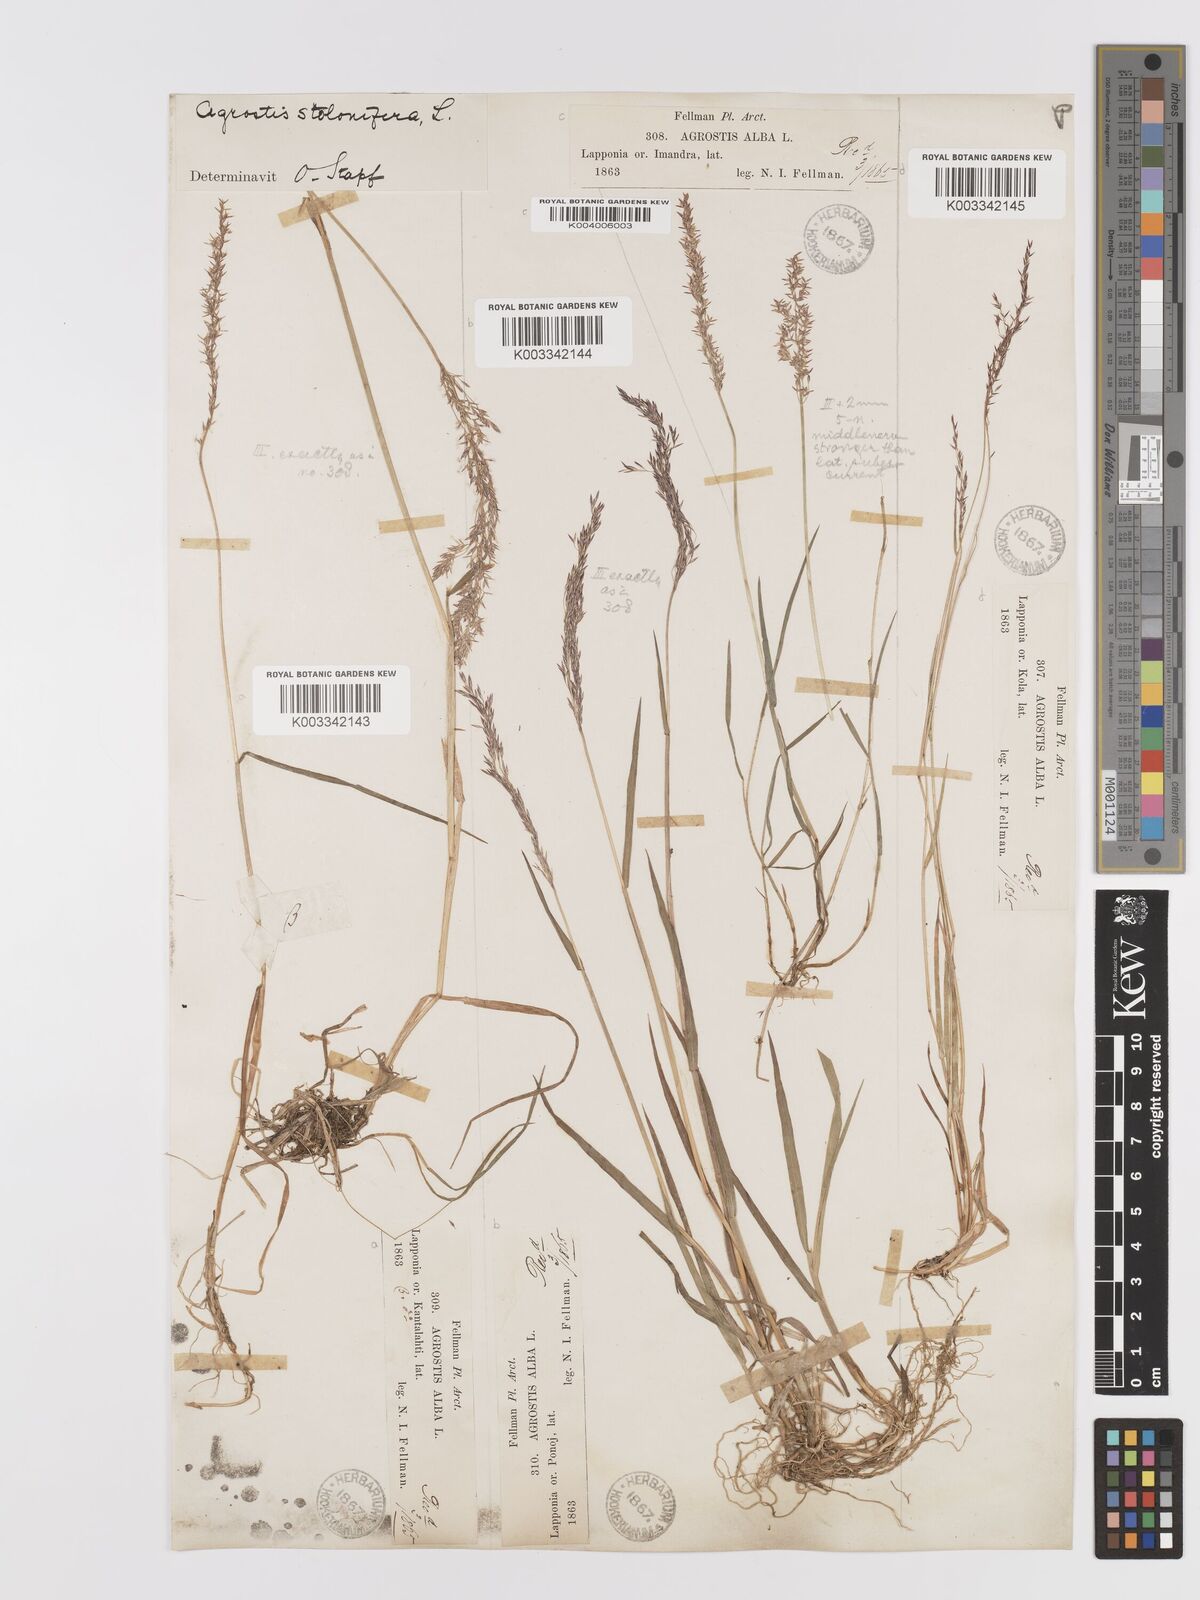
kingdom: Plantae
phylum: Tracheophyta
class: Liliopsida
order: Poales
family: Poaceae
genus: Agrostis
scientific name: Agrostis stolonifera
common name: Creeping bentgrass
